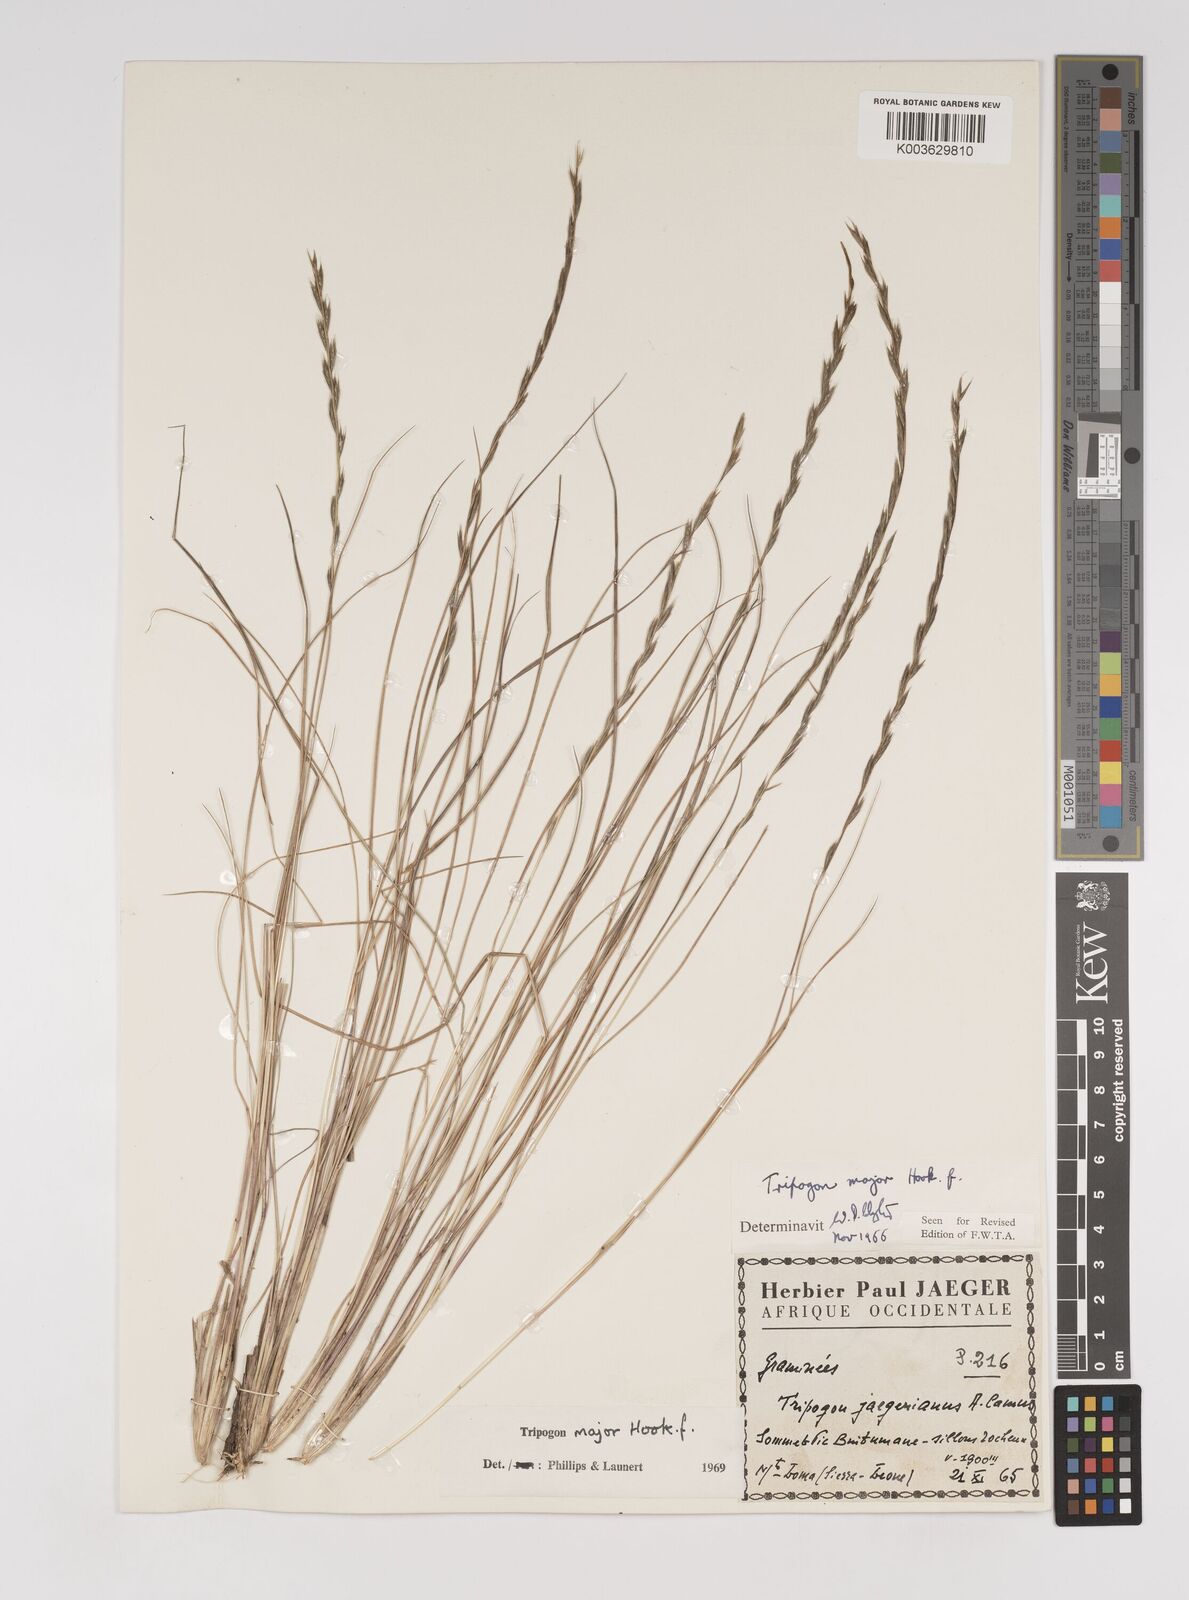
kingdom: Plantae
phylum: Tracheophyta
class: Liliopsida
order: Poales
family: Poaceae
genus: Tripogon
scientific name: Tripogon major
